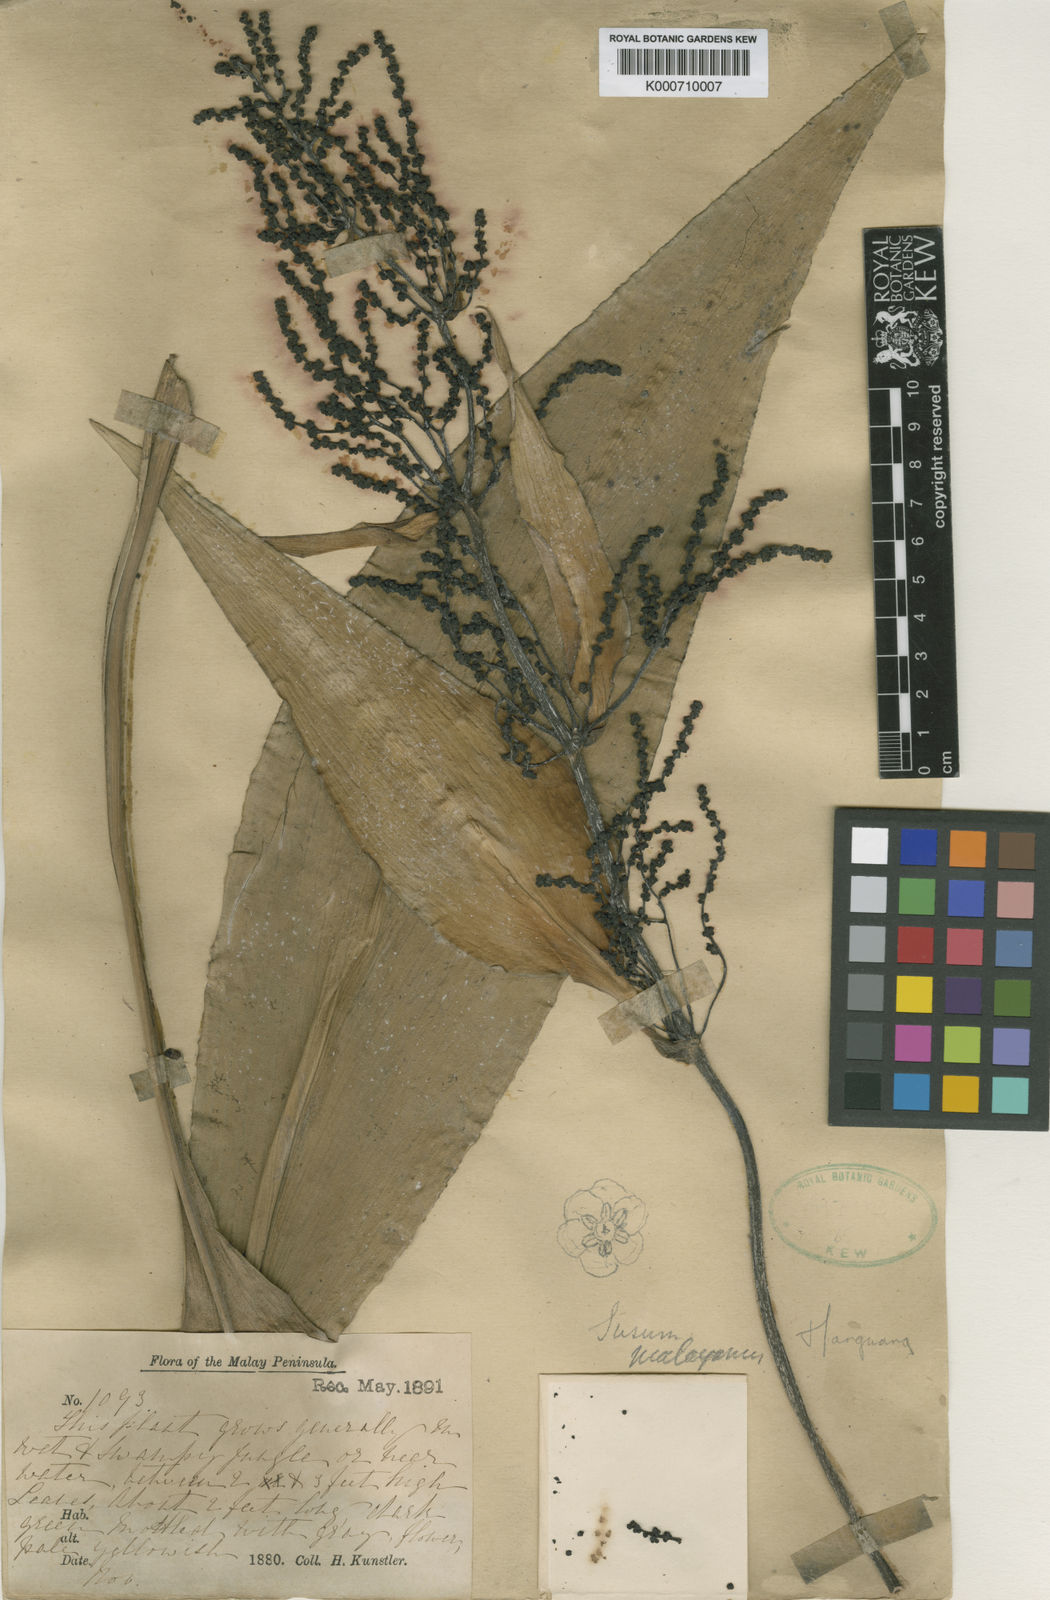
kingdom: Plantae
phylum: Tracheophyta
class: Liliopsida
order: Commelinales
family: Hanguanaceae
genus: Hanguana
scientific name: Hanguana malayana
